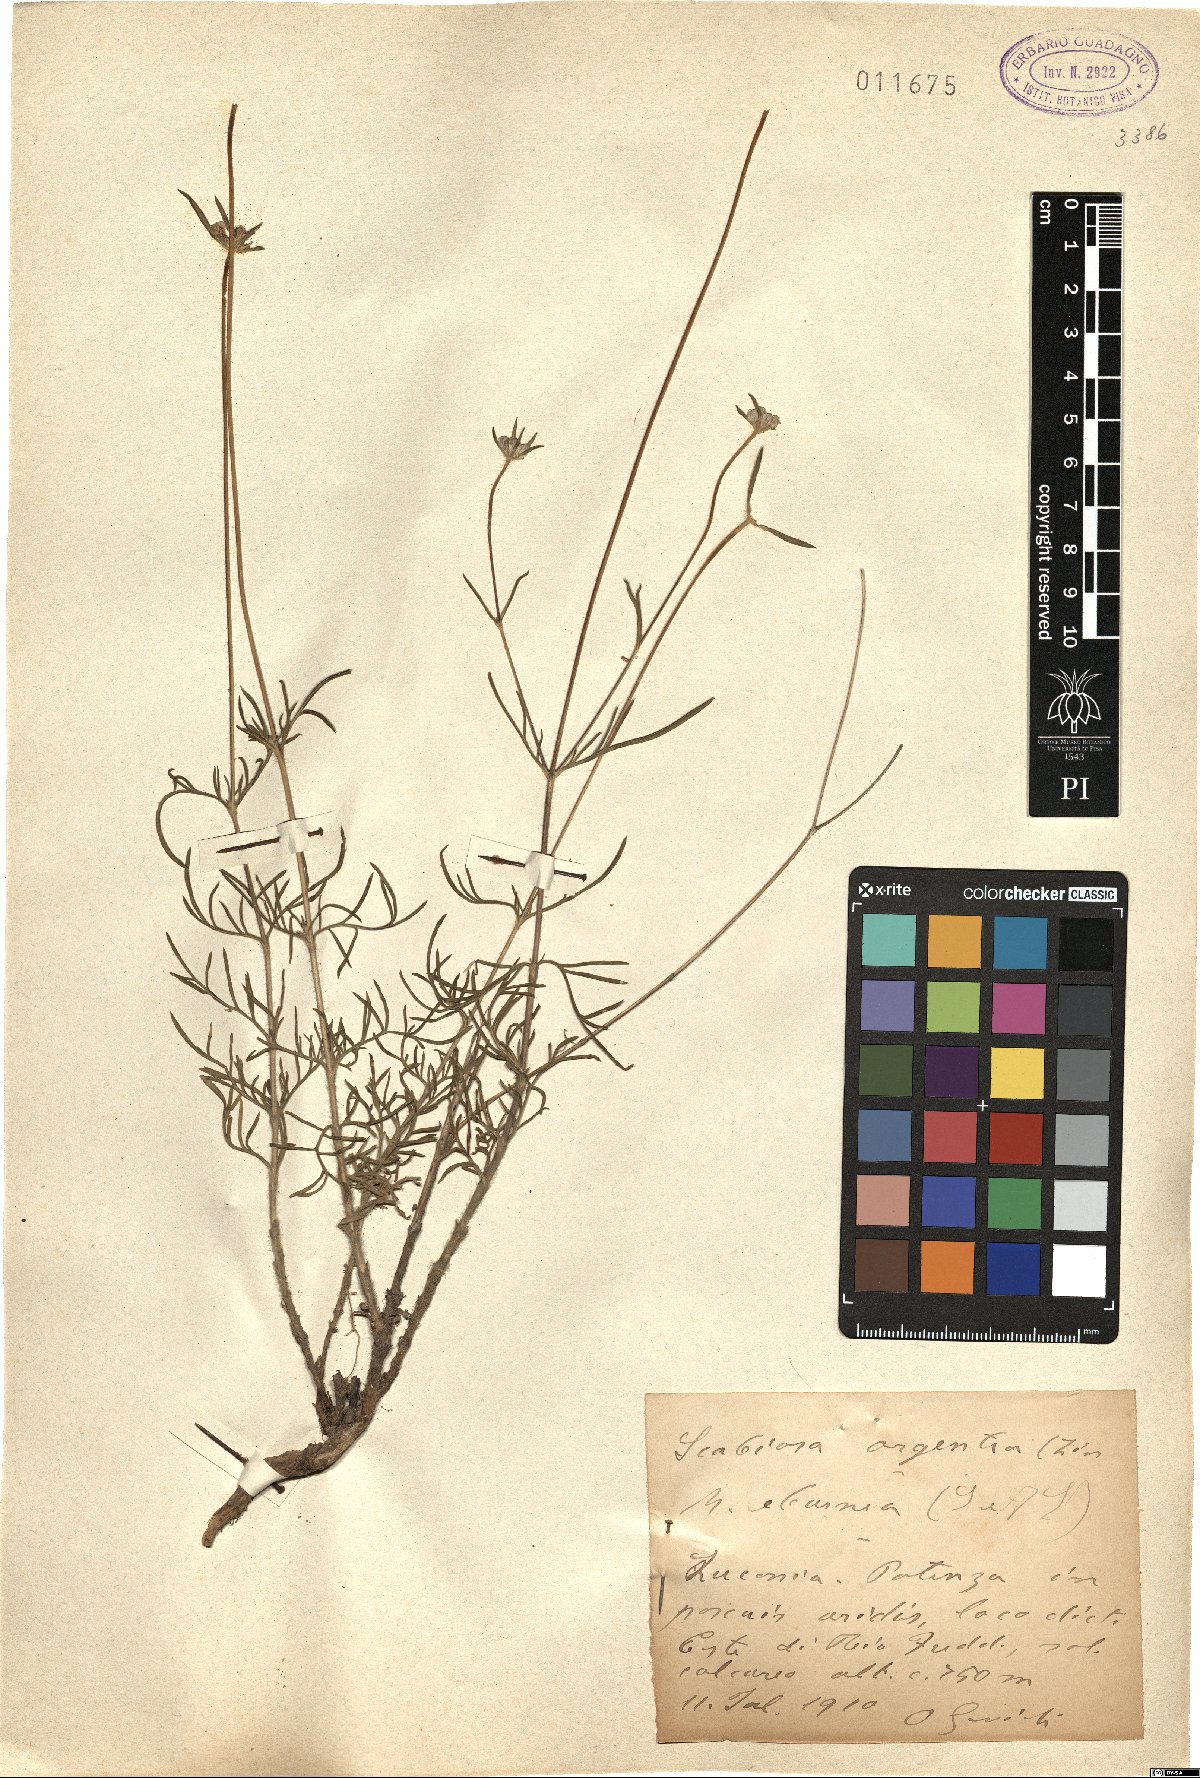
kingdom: Plantae
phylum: Tracheophyta
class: Magnoliopsida
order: Dipsacales
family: Caprifoliaceae
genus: Lomelosia
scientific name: Lomelosia argentea
